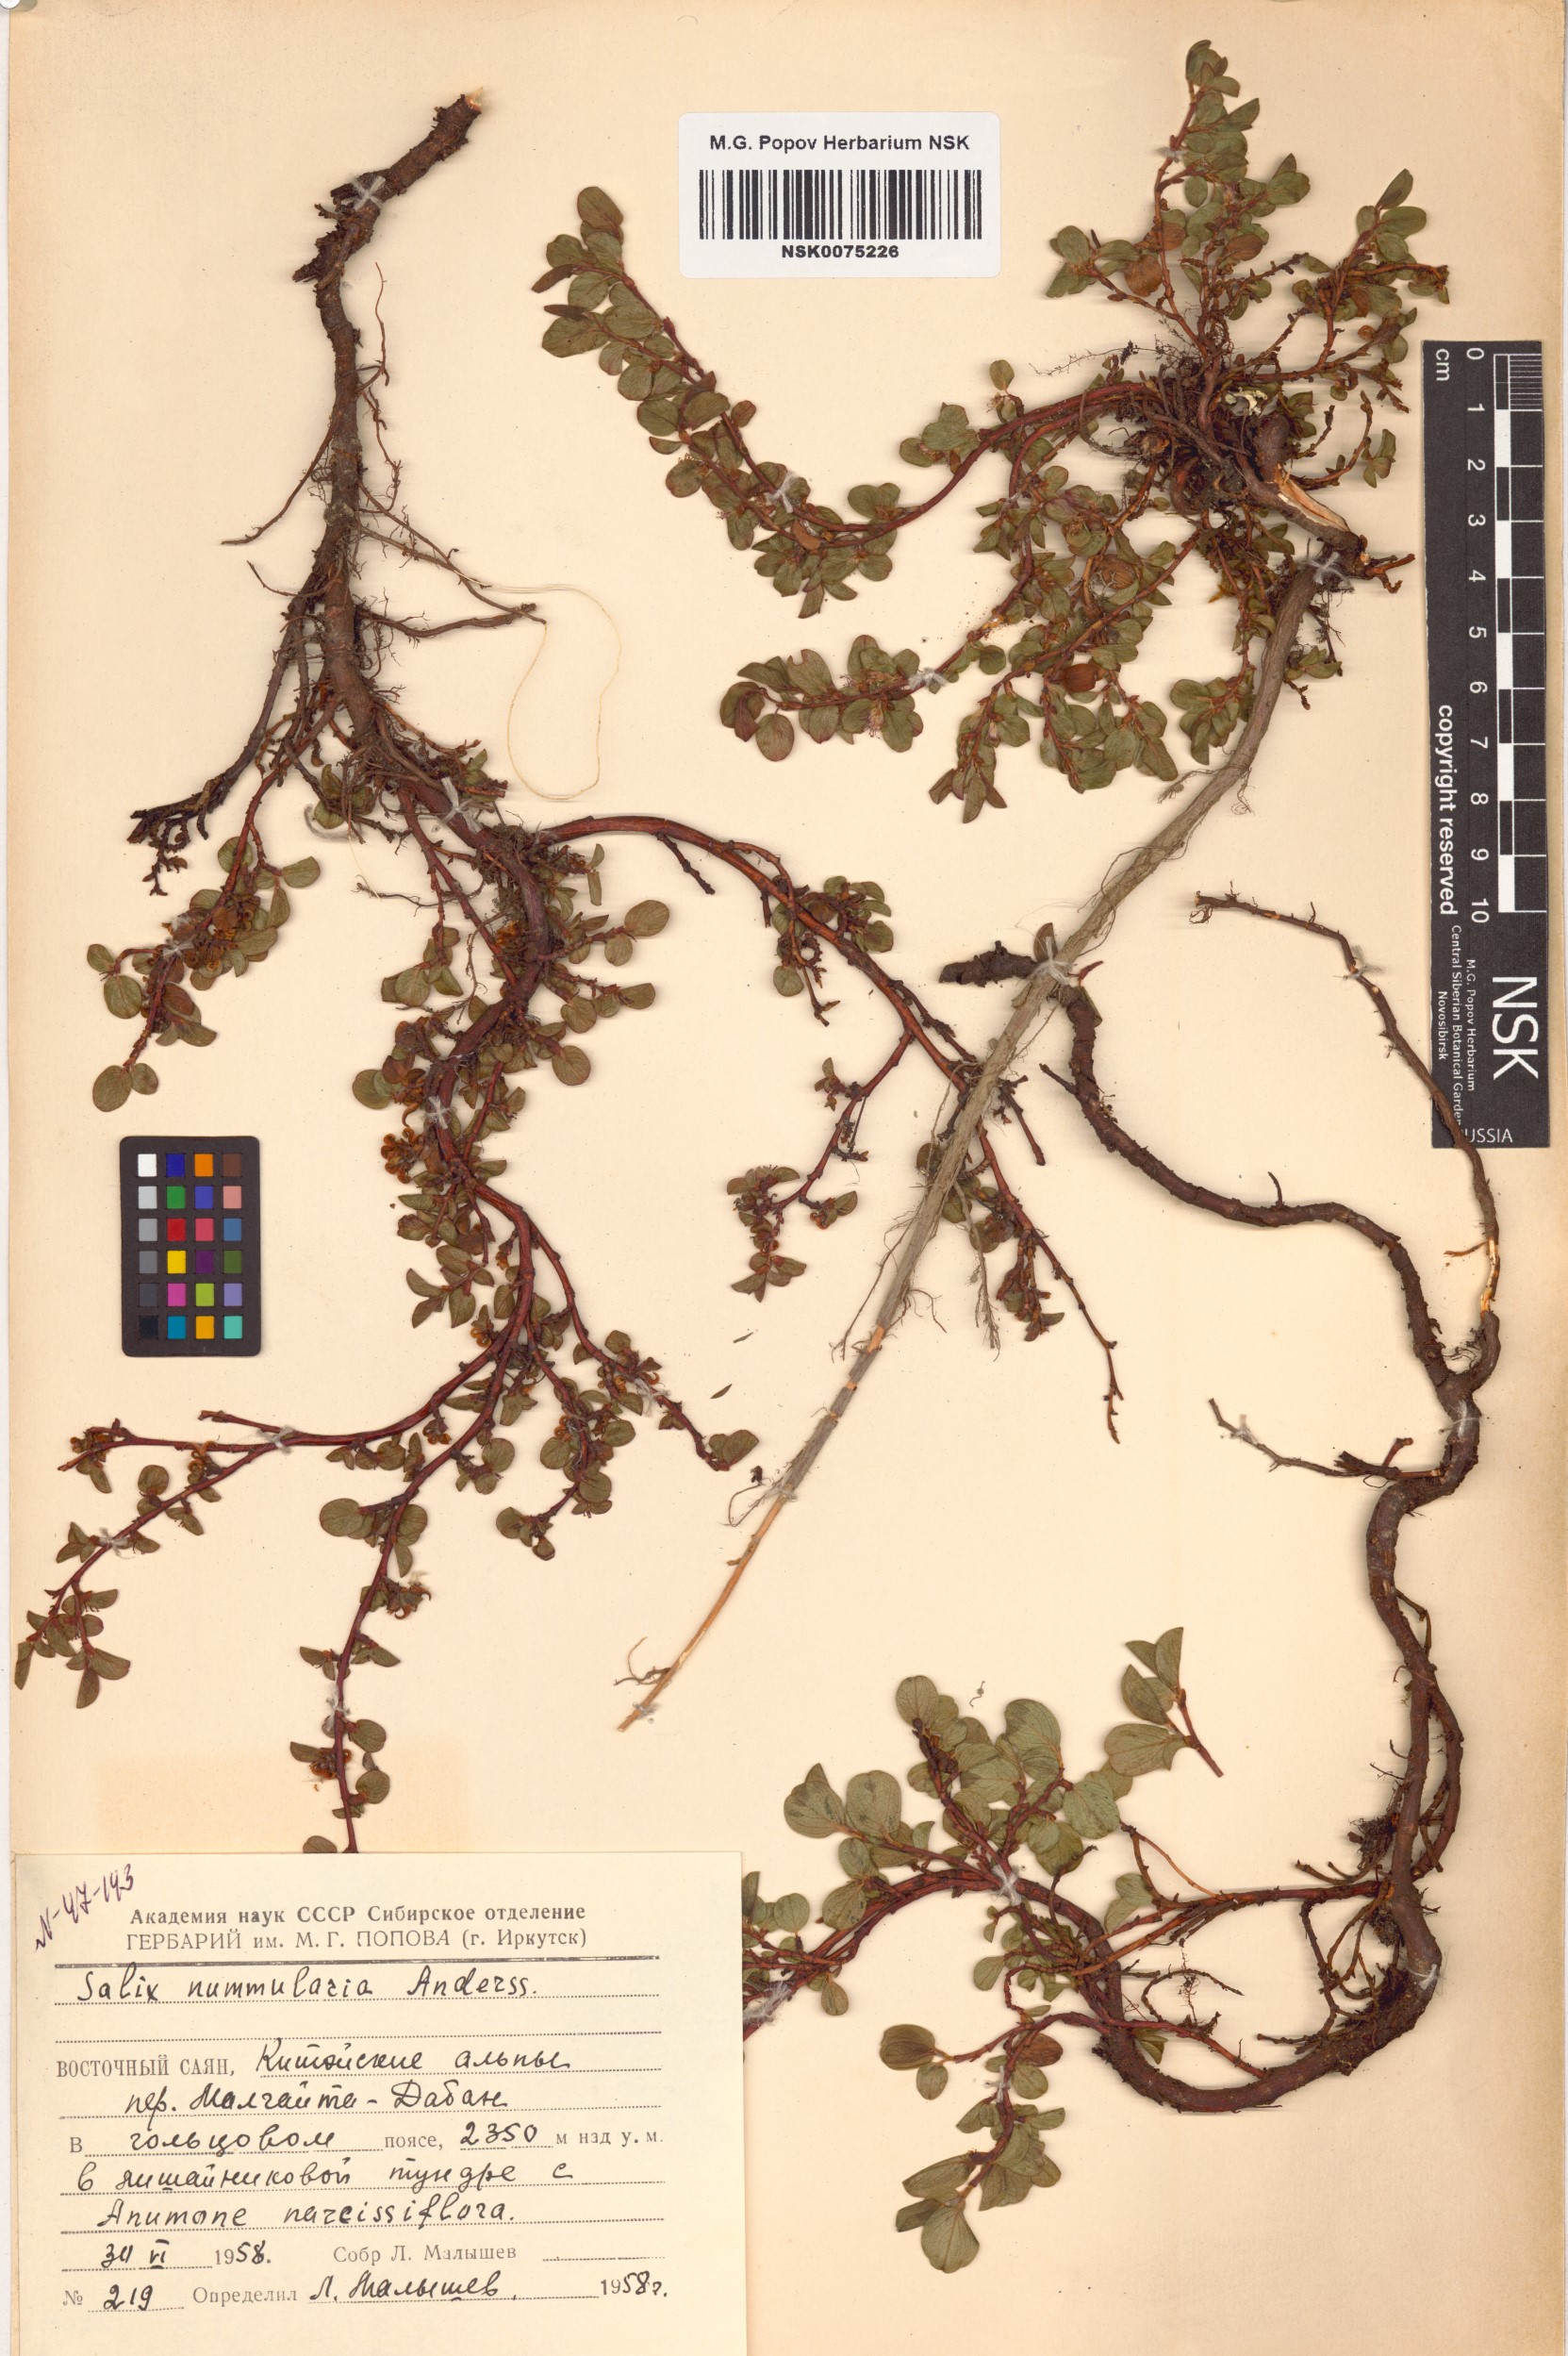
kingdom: Plantae
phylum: Tracheophyta
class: Magnoliopsida
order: Malpighiales
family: Salicaceae
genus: Salix
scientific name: Salix nummularia
